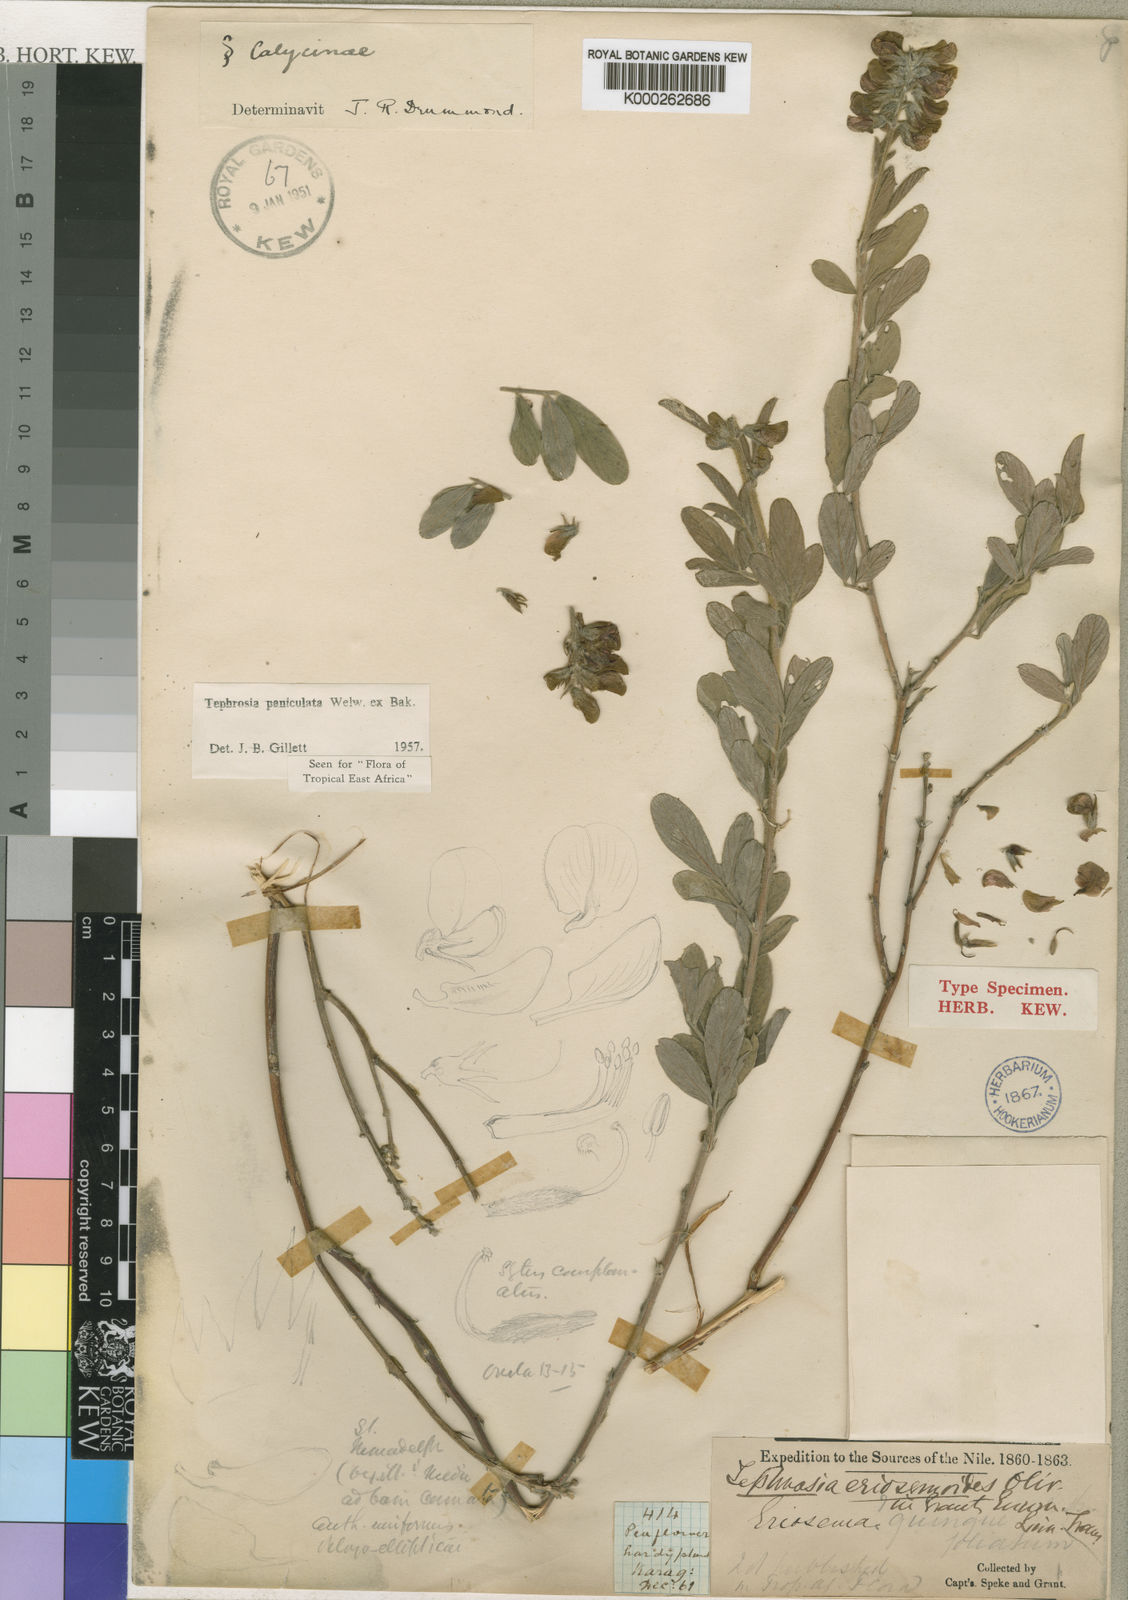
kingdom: Plantae
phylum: Tracheophyta
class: Magnoliopsida
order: Fabales
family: Fabaceae
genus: Tephrosia
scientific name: Tephrosia paniculata
